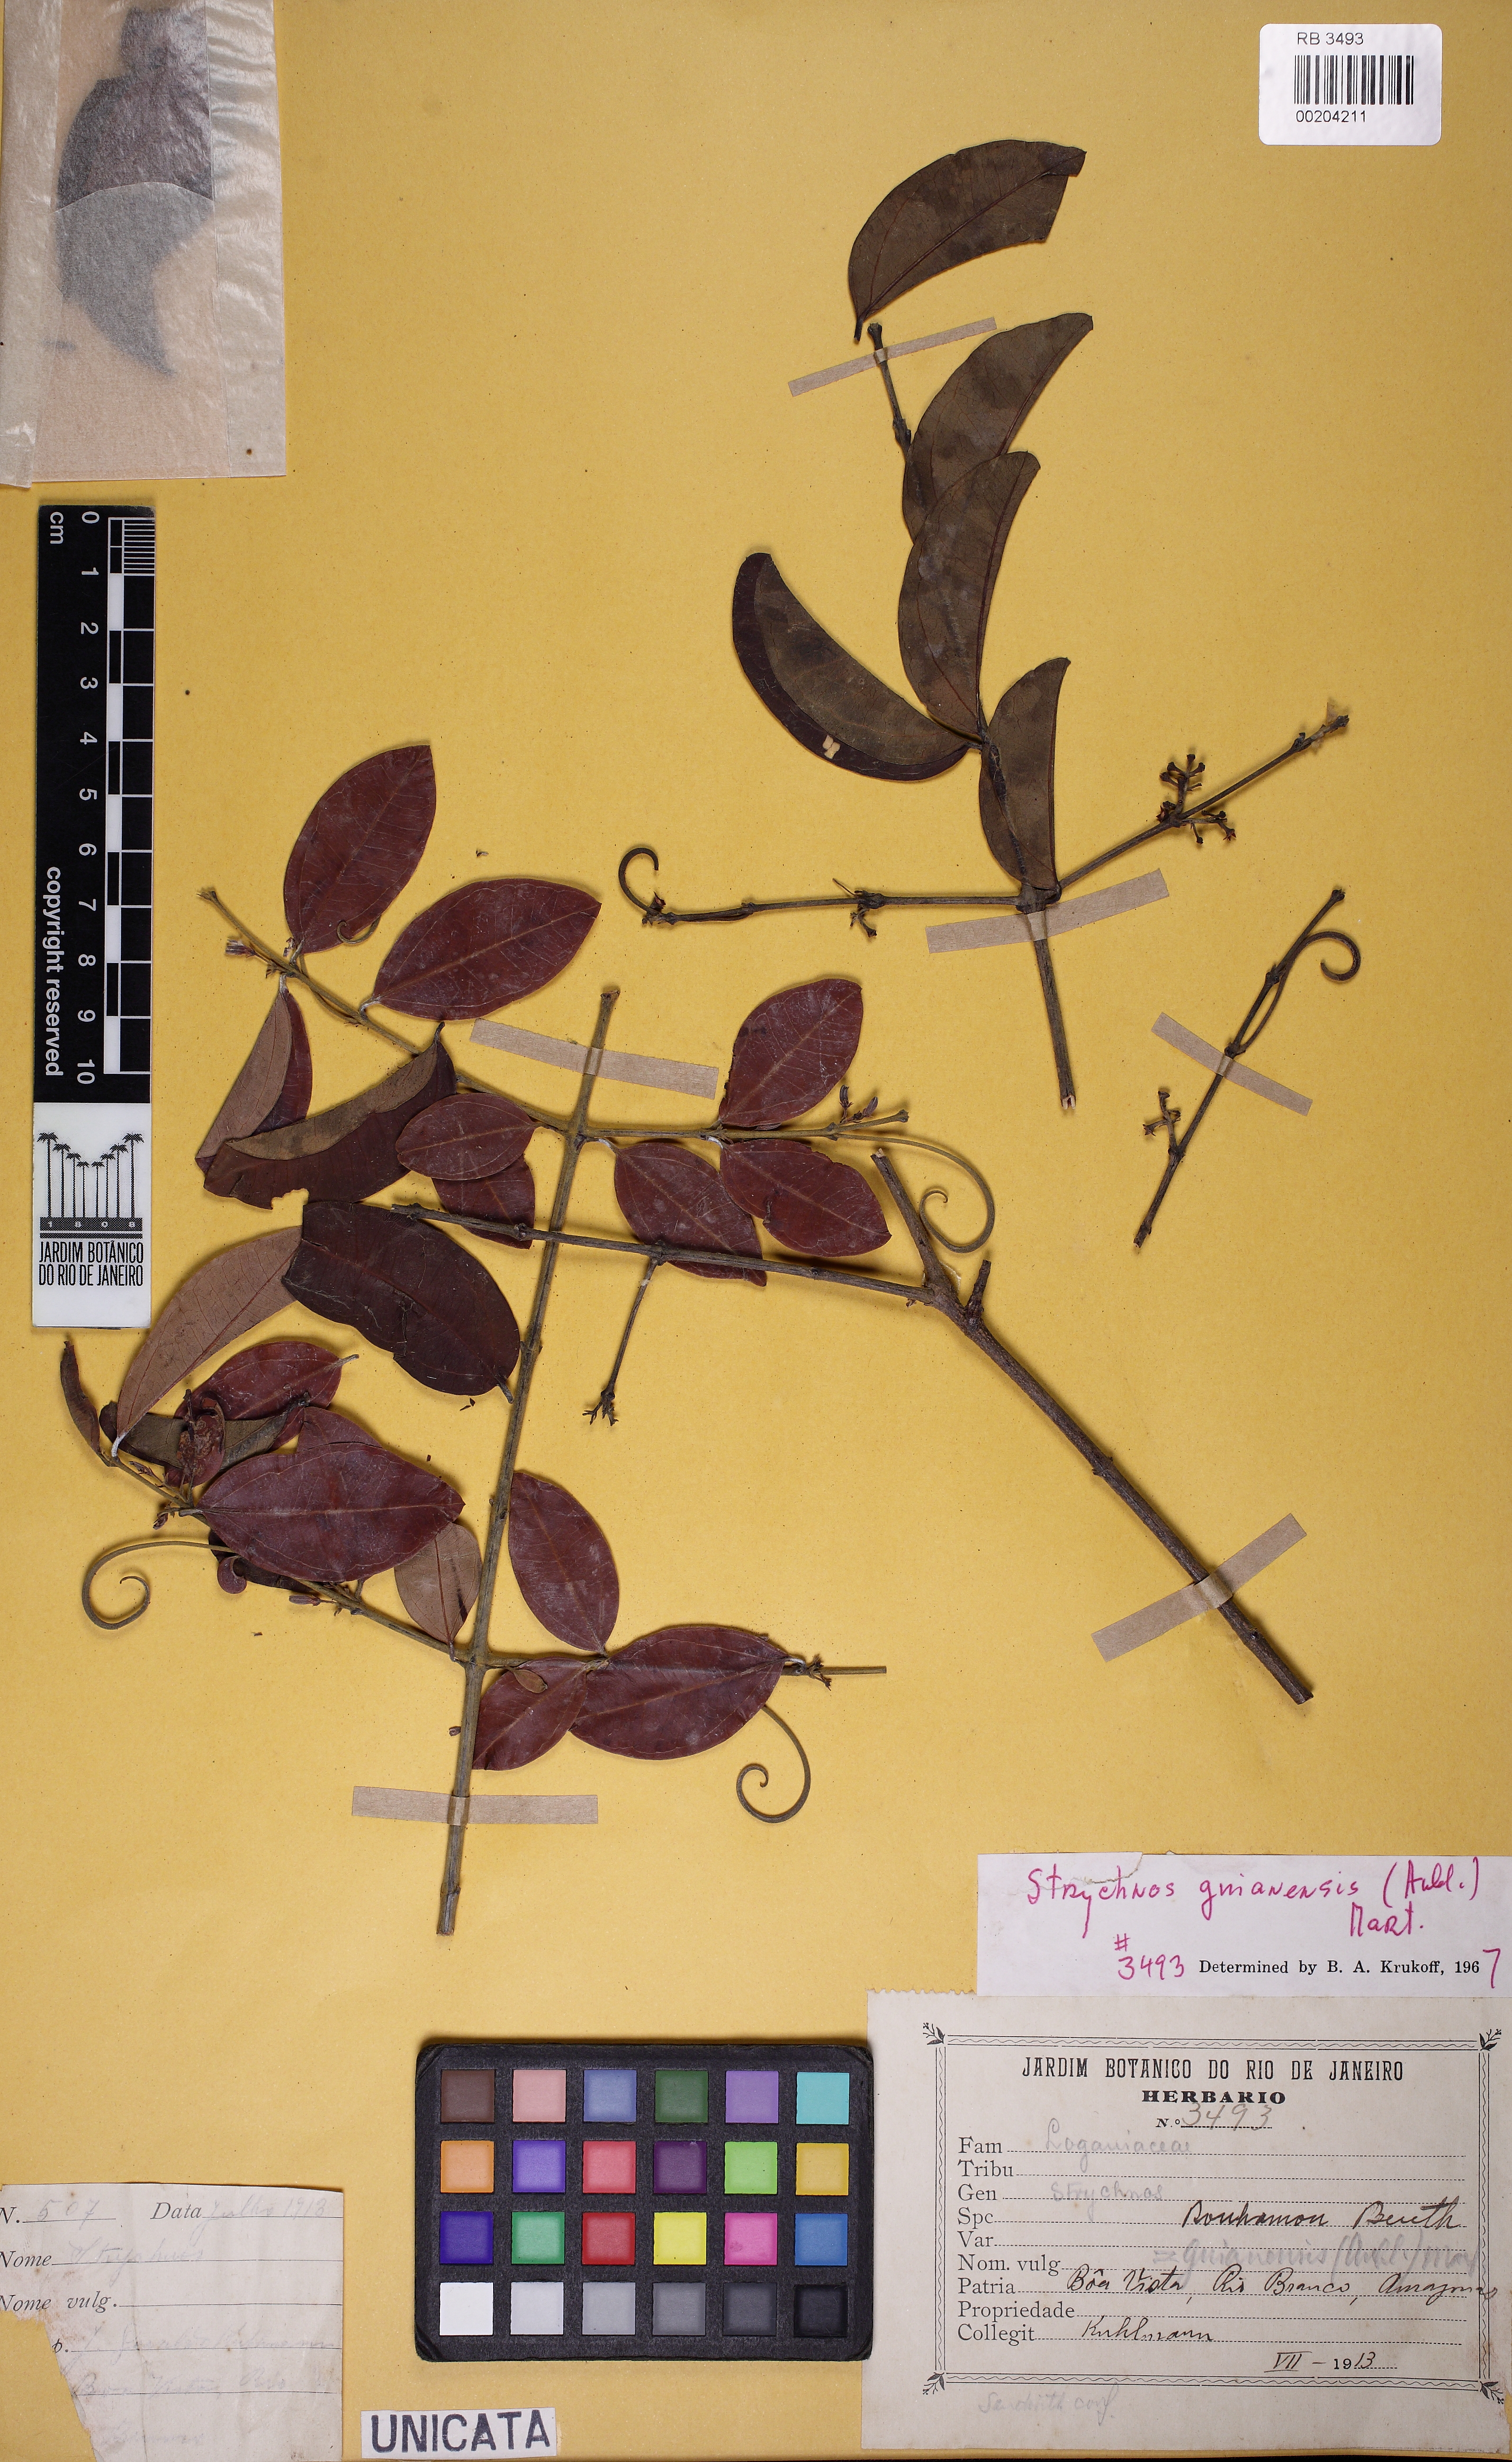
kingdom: Plantae
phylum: Tracheophyta
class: Magnoliopsida
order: Gentianales
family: Loganiaceae
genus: Strychnos
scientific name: Strychnos guianensis
